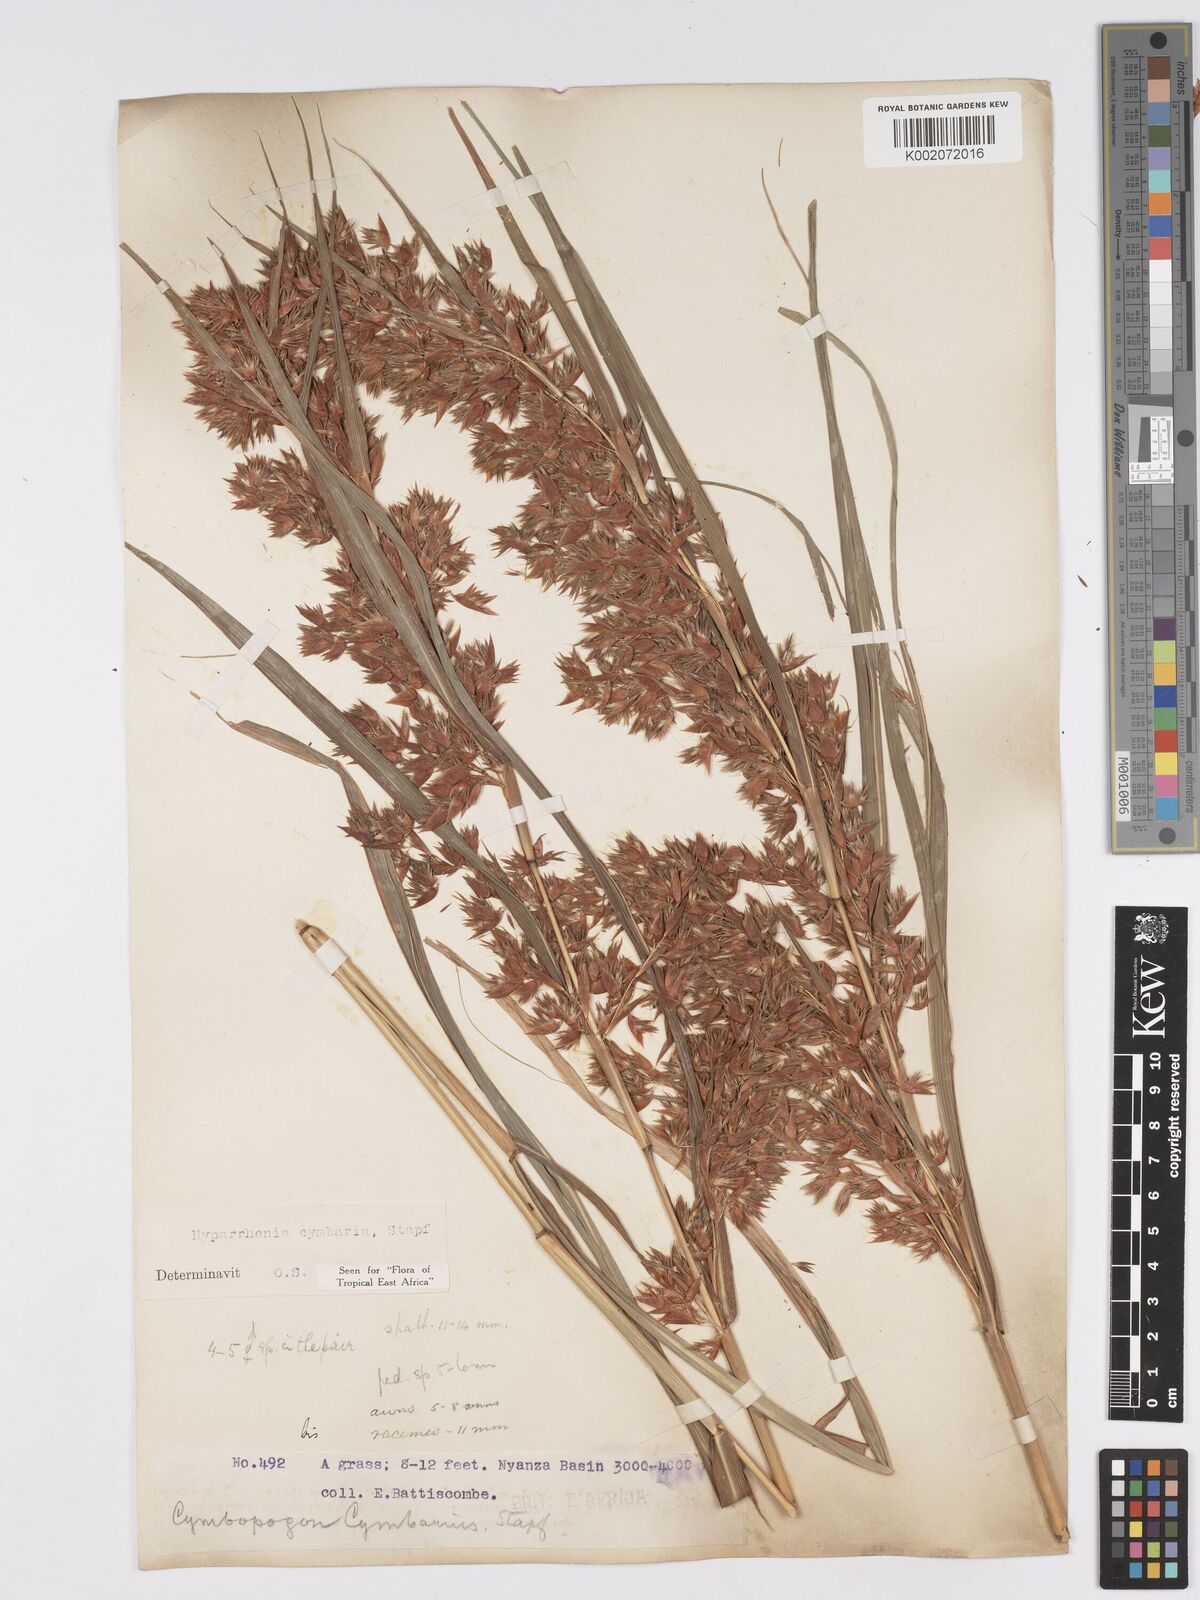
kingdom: Plantae
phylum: Tracheophyta
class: Liliopsida
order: Poales
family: Poaceae
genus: Hyparrhenia
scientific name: Hyparrhenia cymbaria
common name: Boat thatching grass
